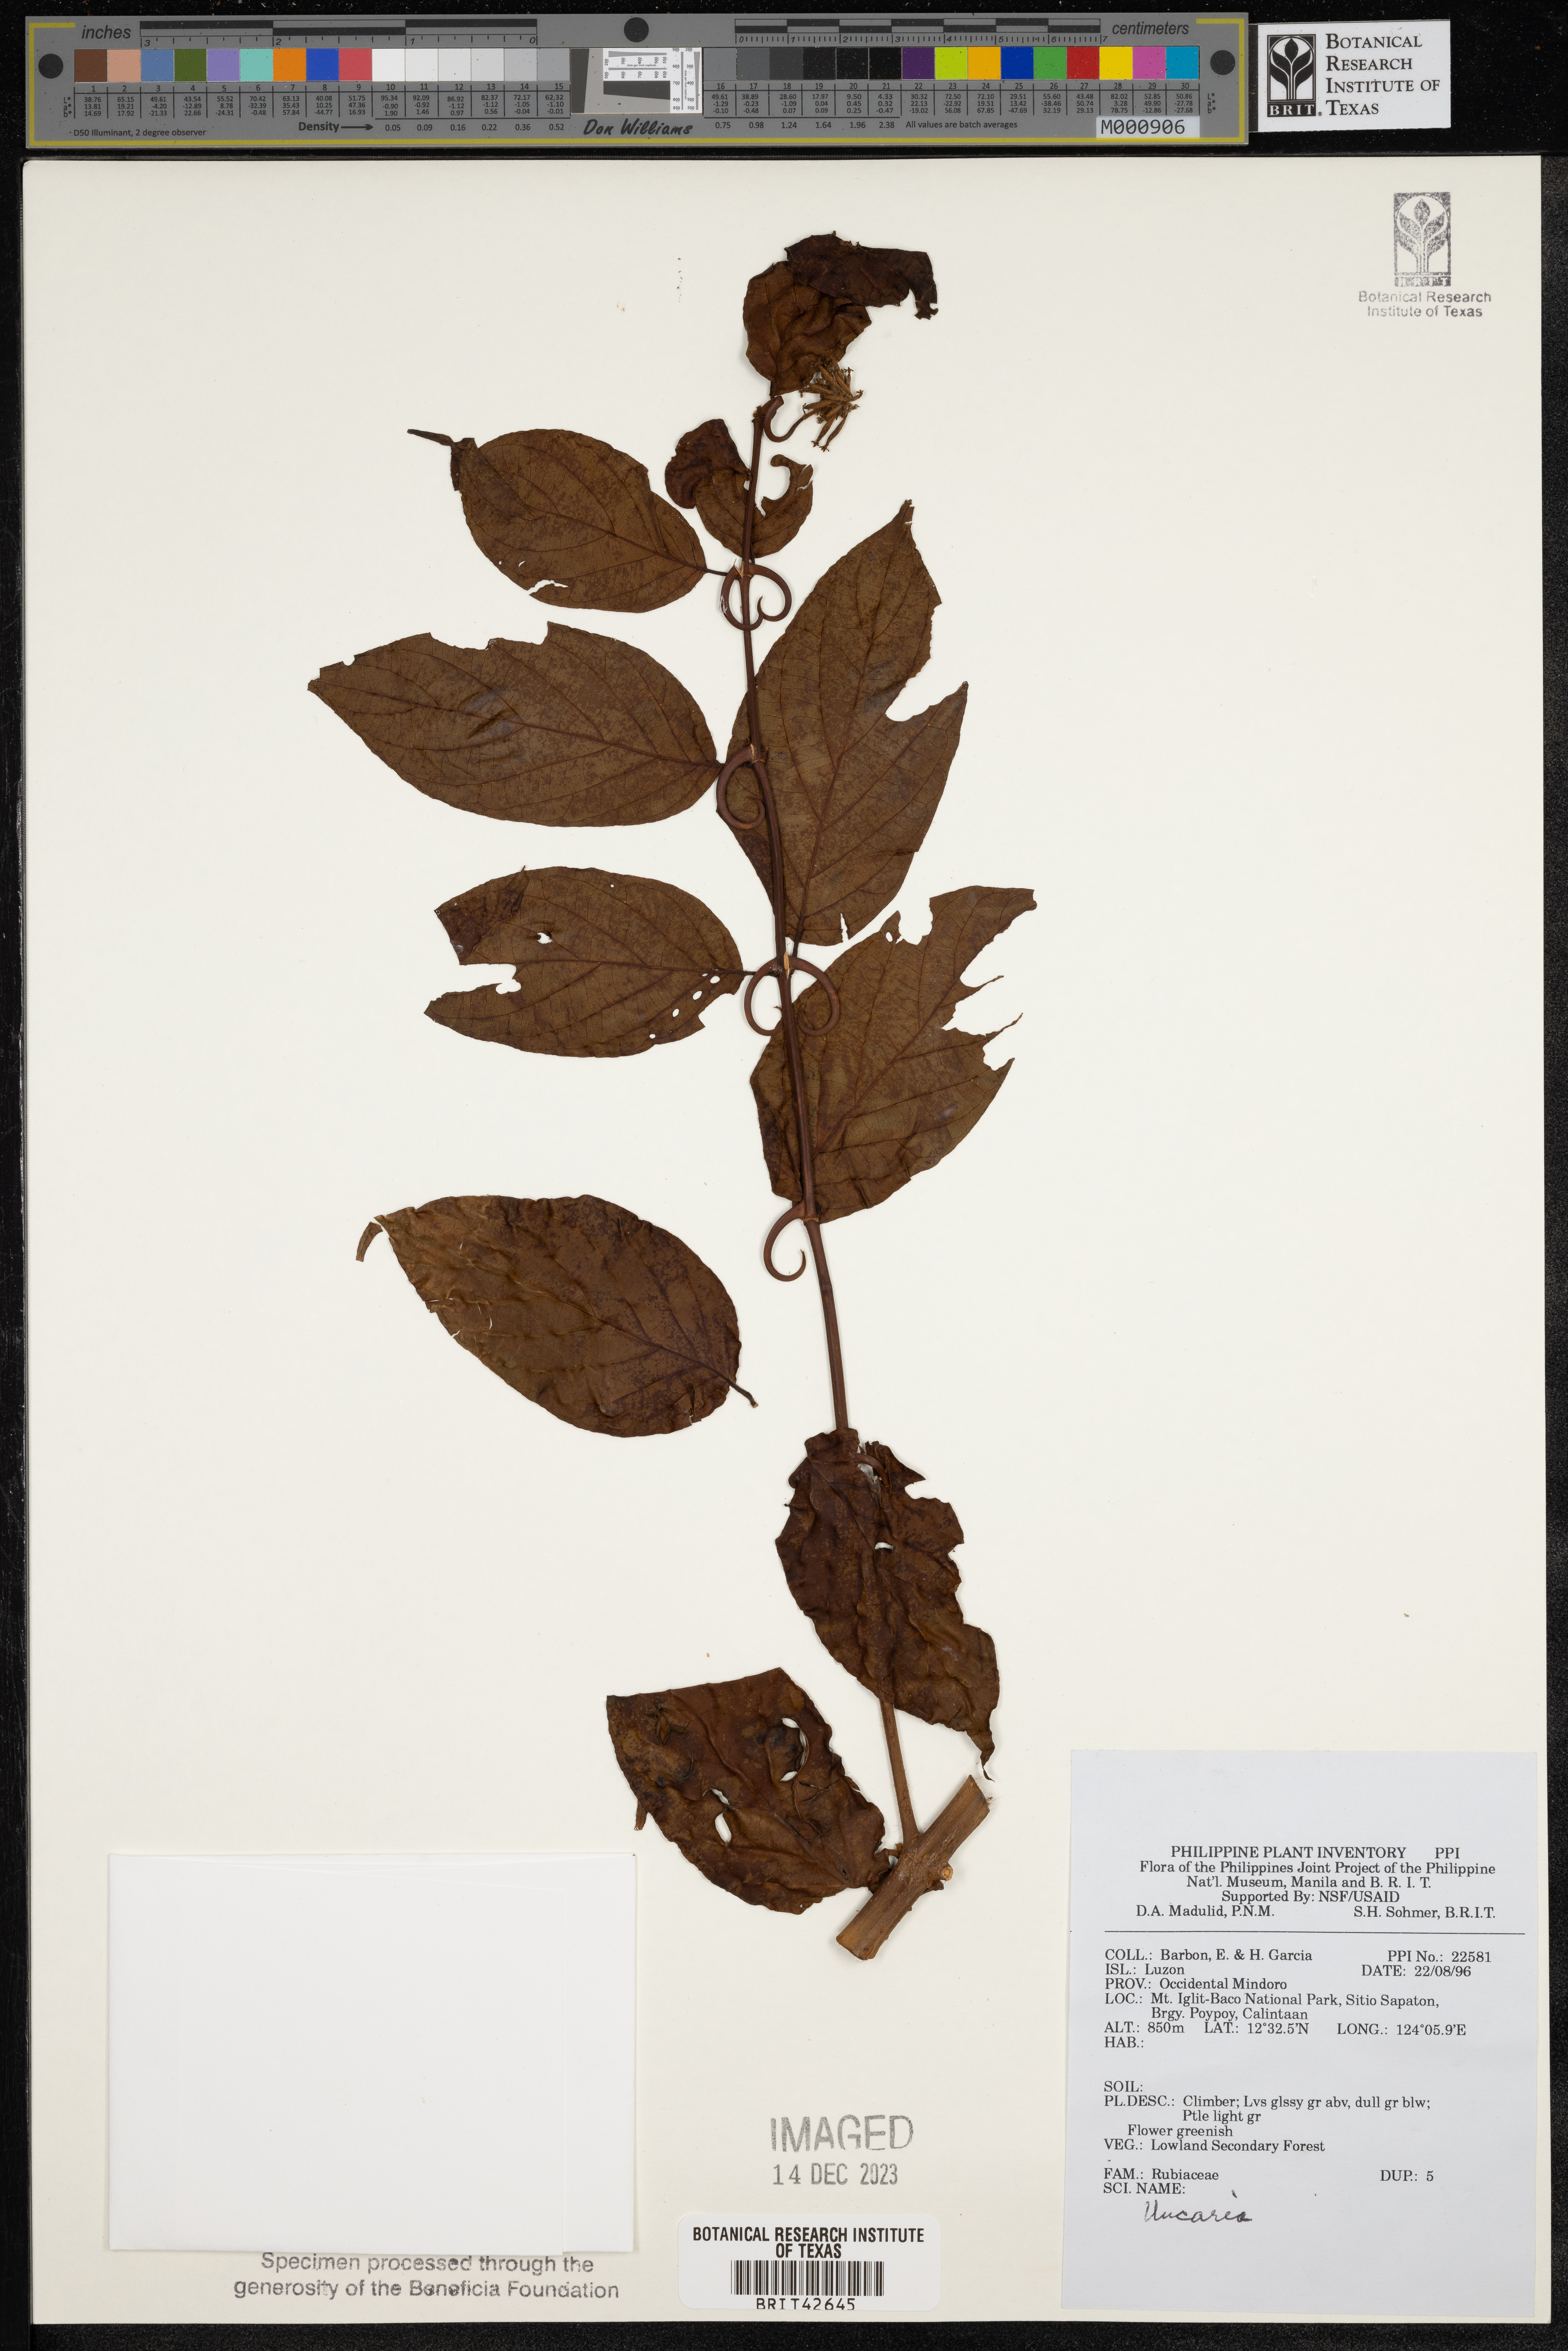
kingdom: Plantae
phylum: Tracheophyta
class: Magnoliopsida
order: Gentianales
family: Rubiaceae
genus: Uncaria
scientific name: Uncaria
